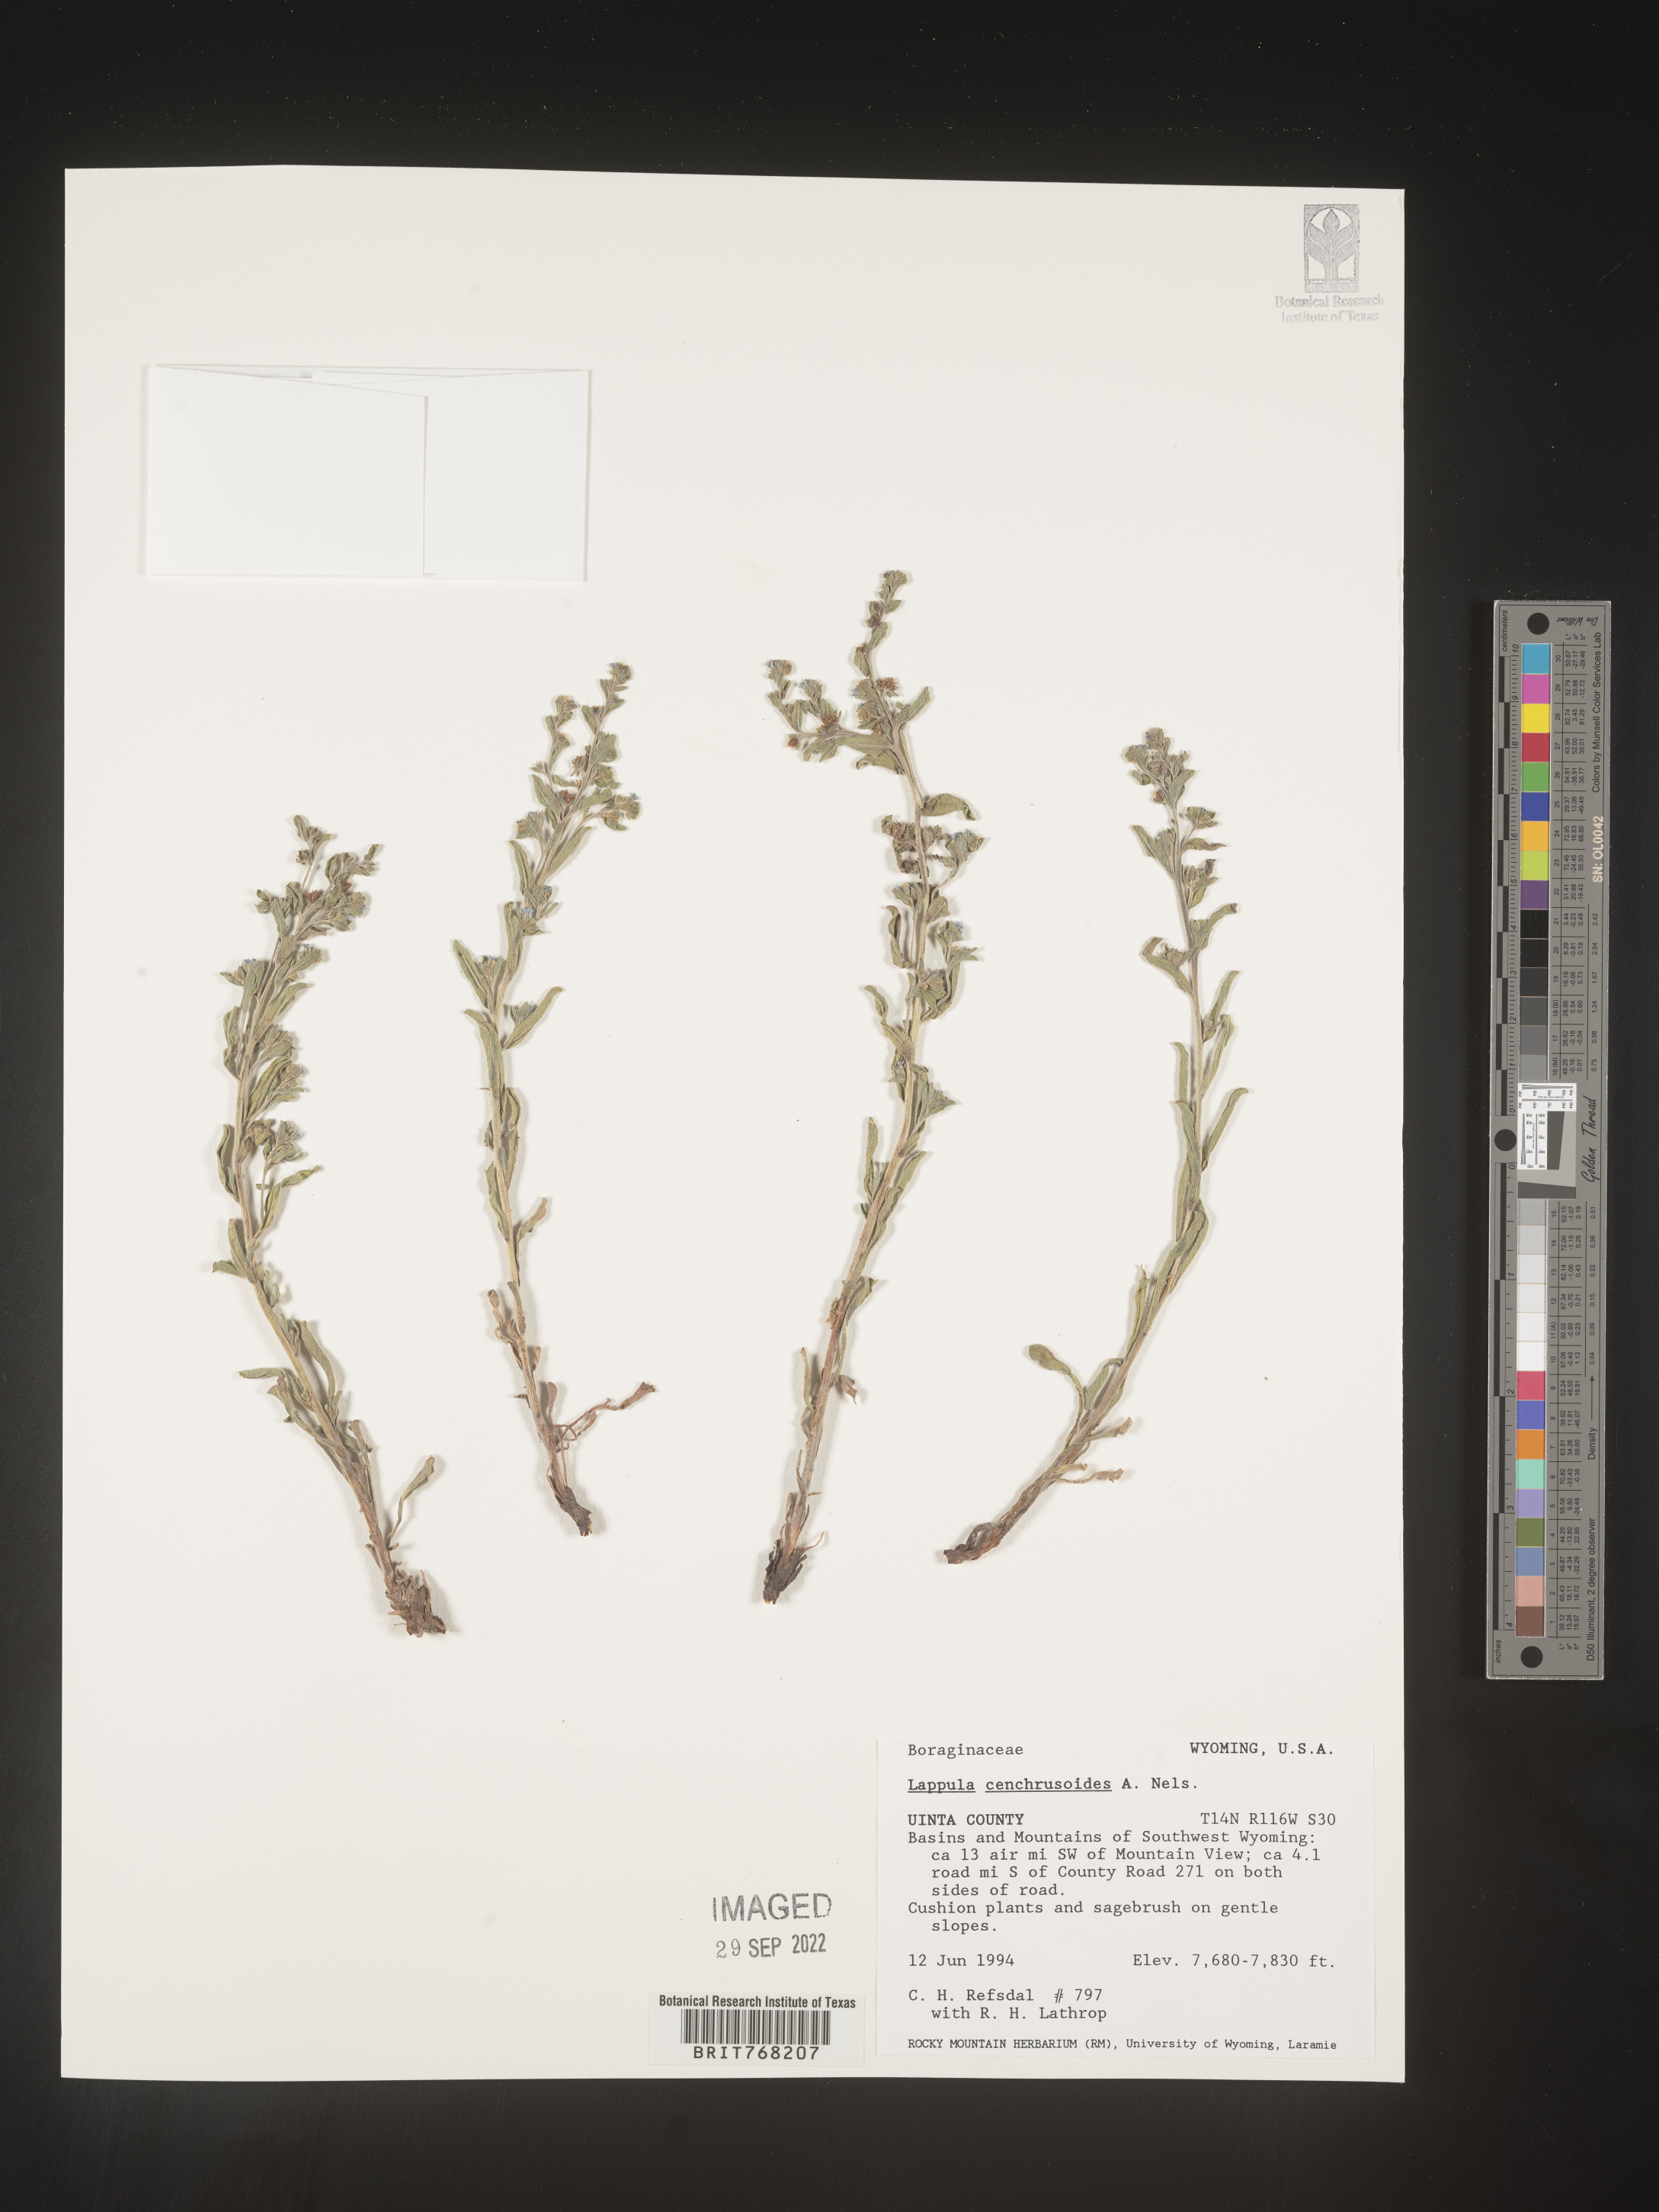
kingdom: Plantae
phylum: Tracheophyta
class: Magnoliopsida
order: Boraginales
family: Boraginaceae
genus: Lappula
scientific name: Lappula
